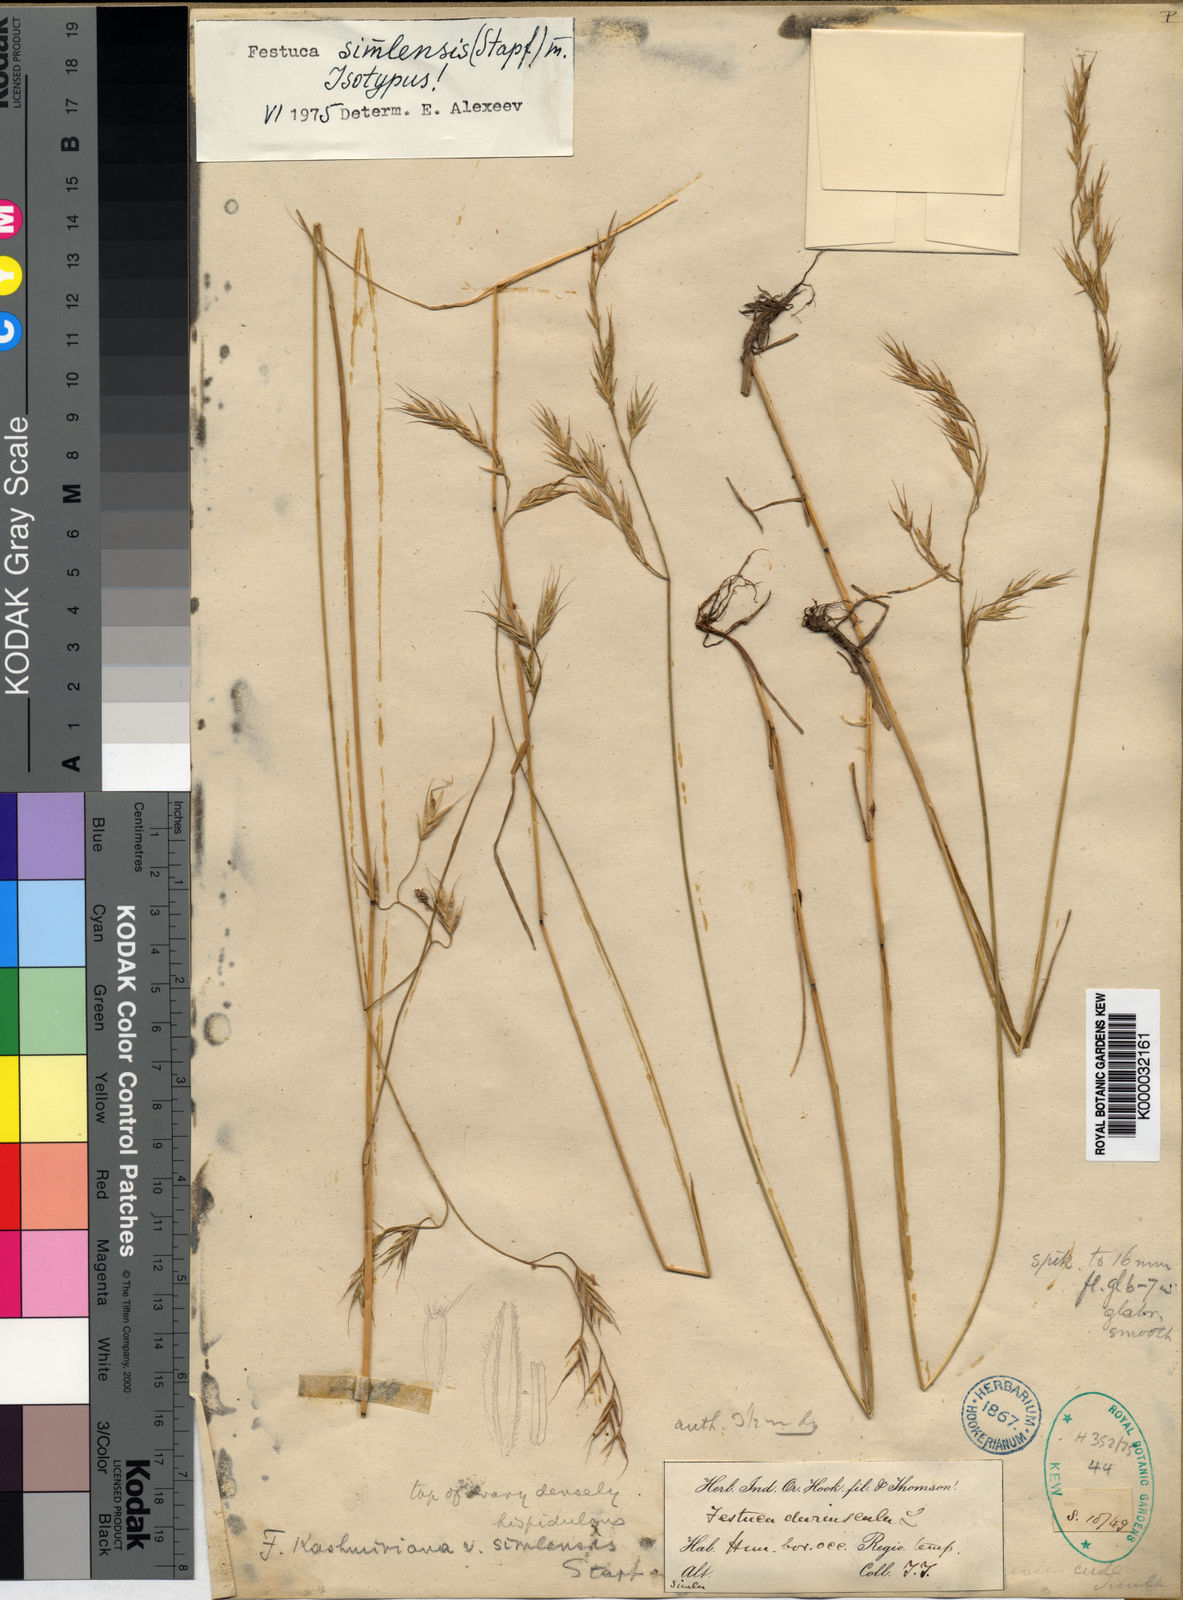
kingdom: Plantae
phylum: Tracheophyta
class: Liliopsida
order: Poales
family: Poaceae
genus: Festuca
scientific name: Festuca simlensis
